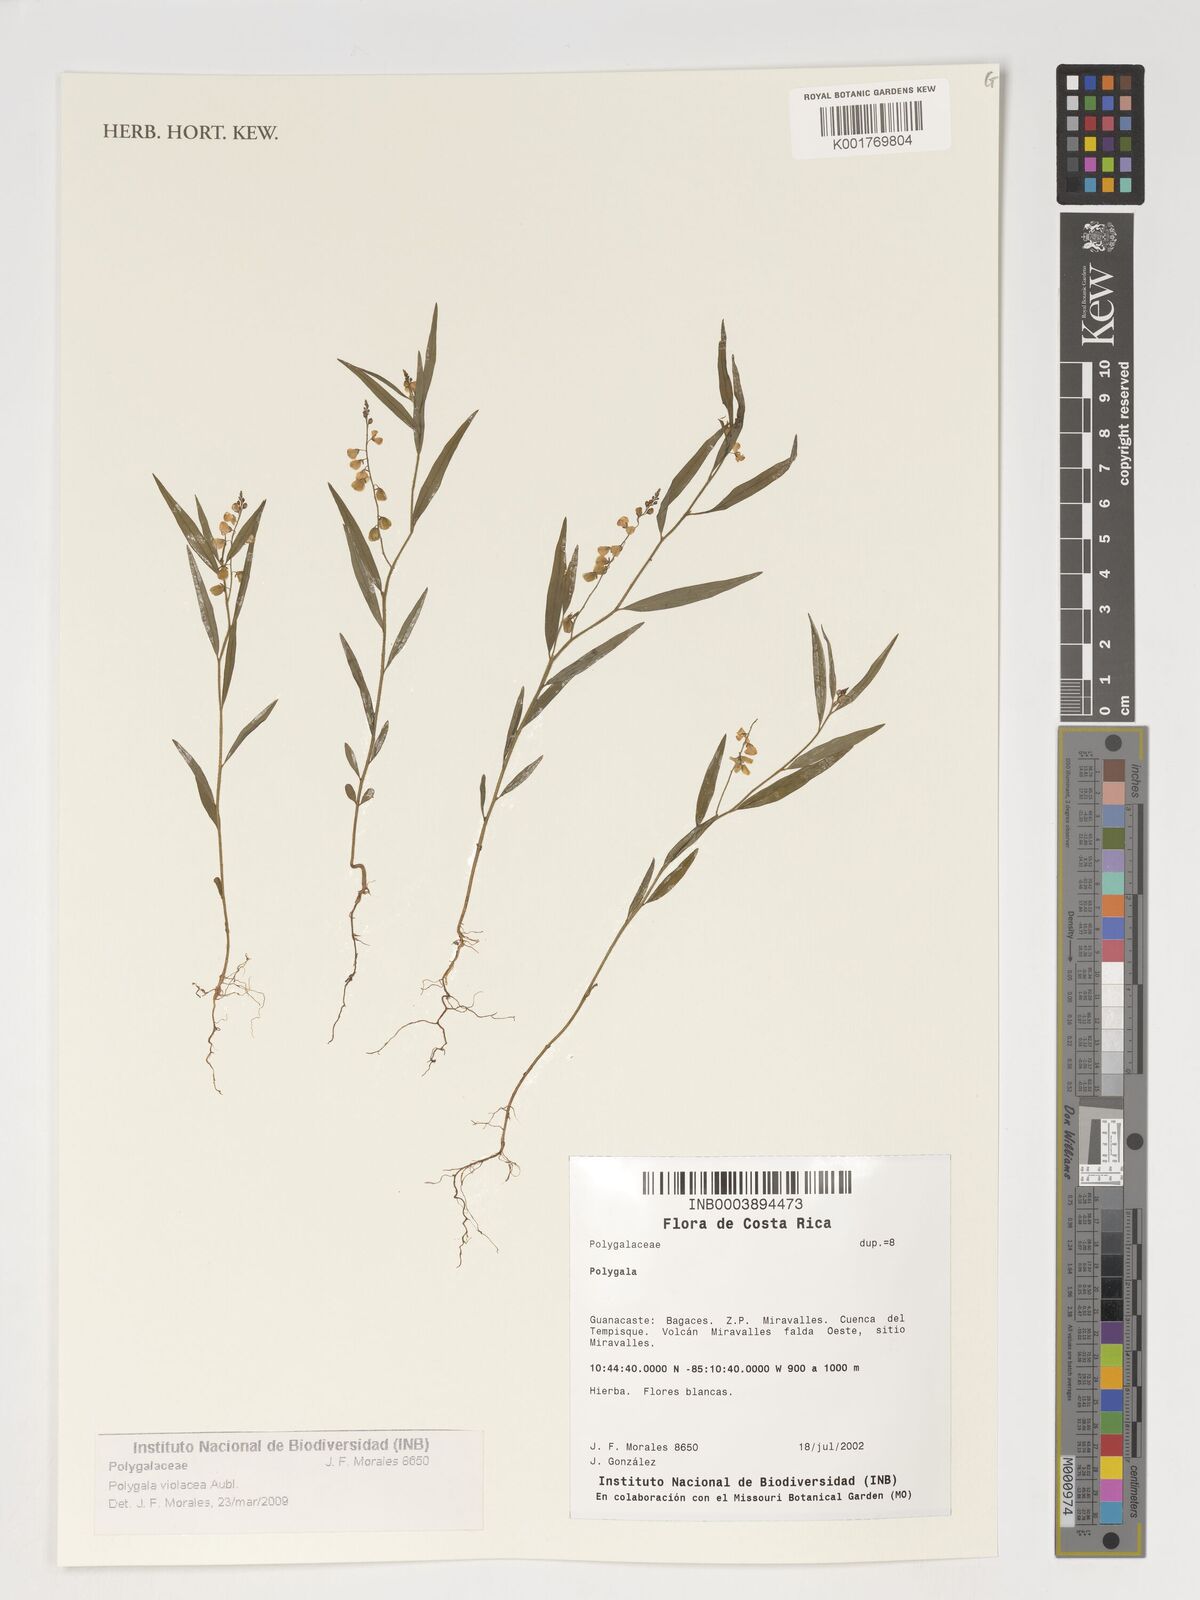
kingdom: Plantae
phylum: Tracheophyta
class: Magnoliopsida
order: Fabales
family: Polygalaceae
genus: Asemeia
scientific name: Asemeia violacea
